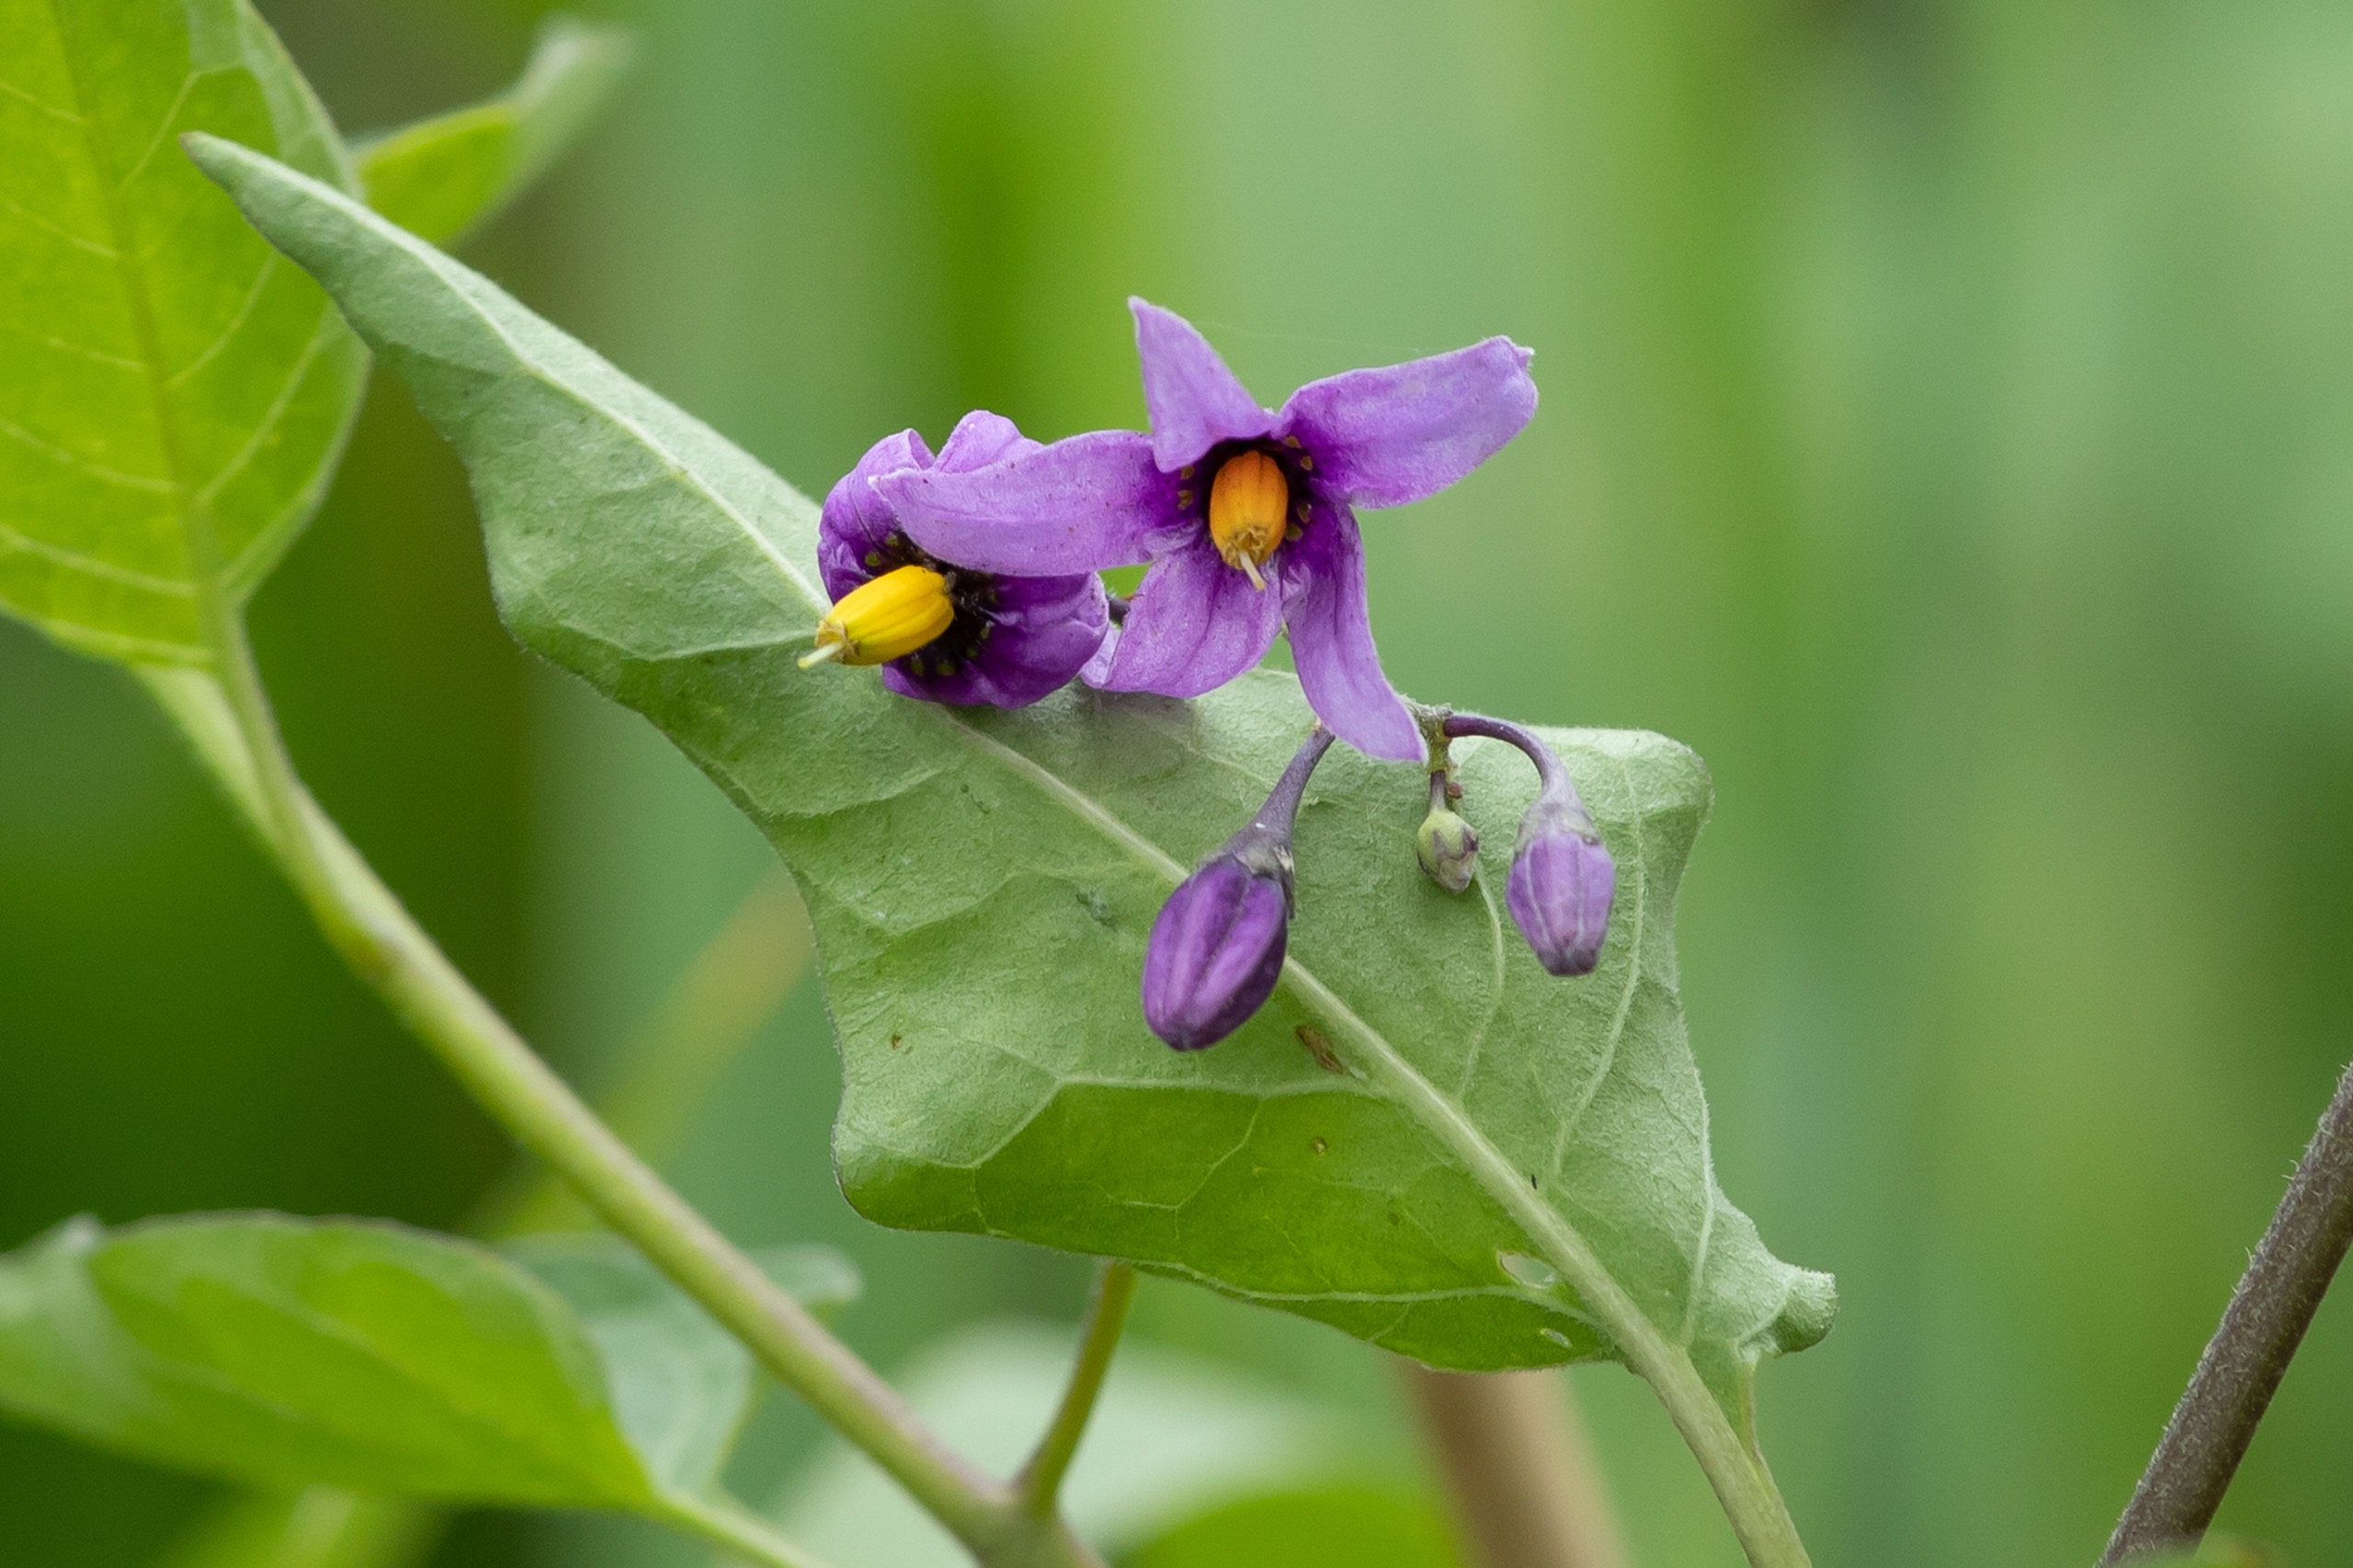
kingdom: Plantae
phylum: Tracheophyta
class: Magnoliopsida
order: Solanales
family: Solanaceae
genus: Solanum
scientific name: Solanum dulcamara
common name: Bittersød natskygge
